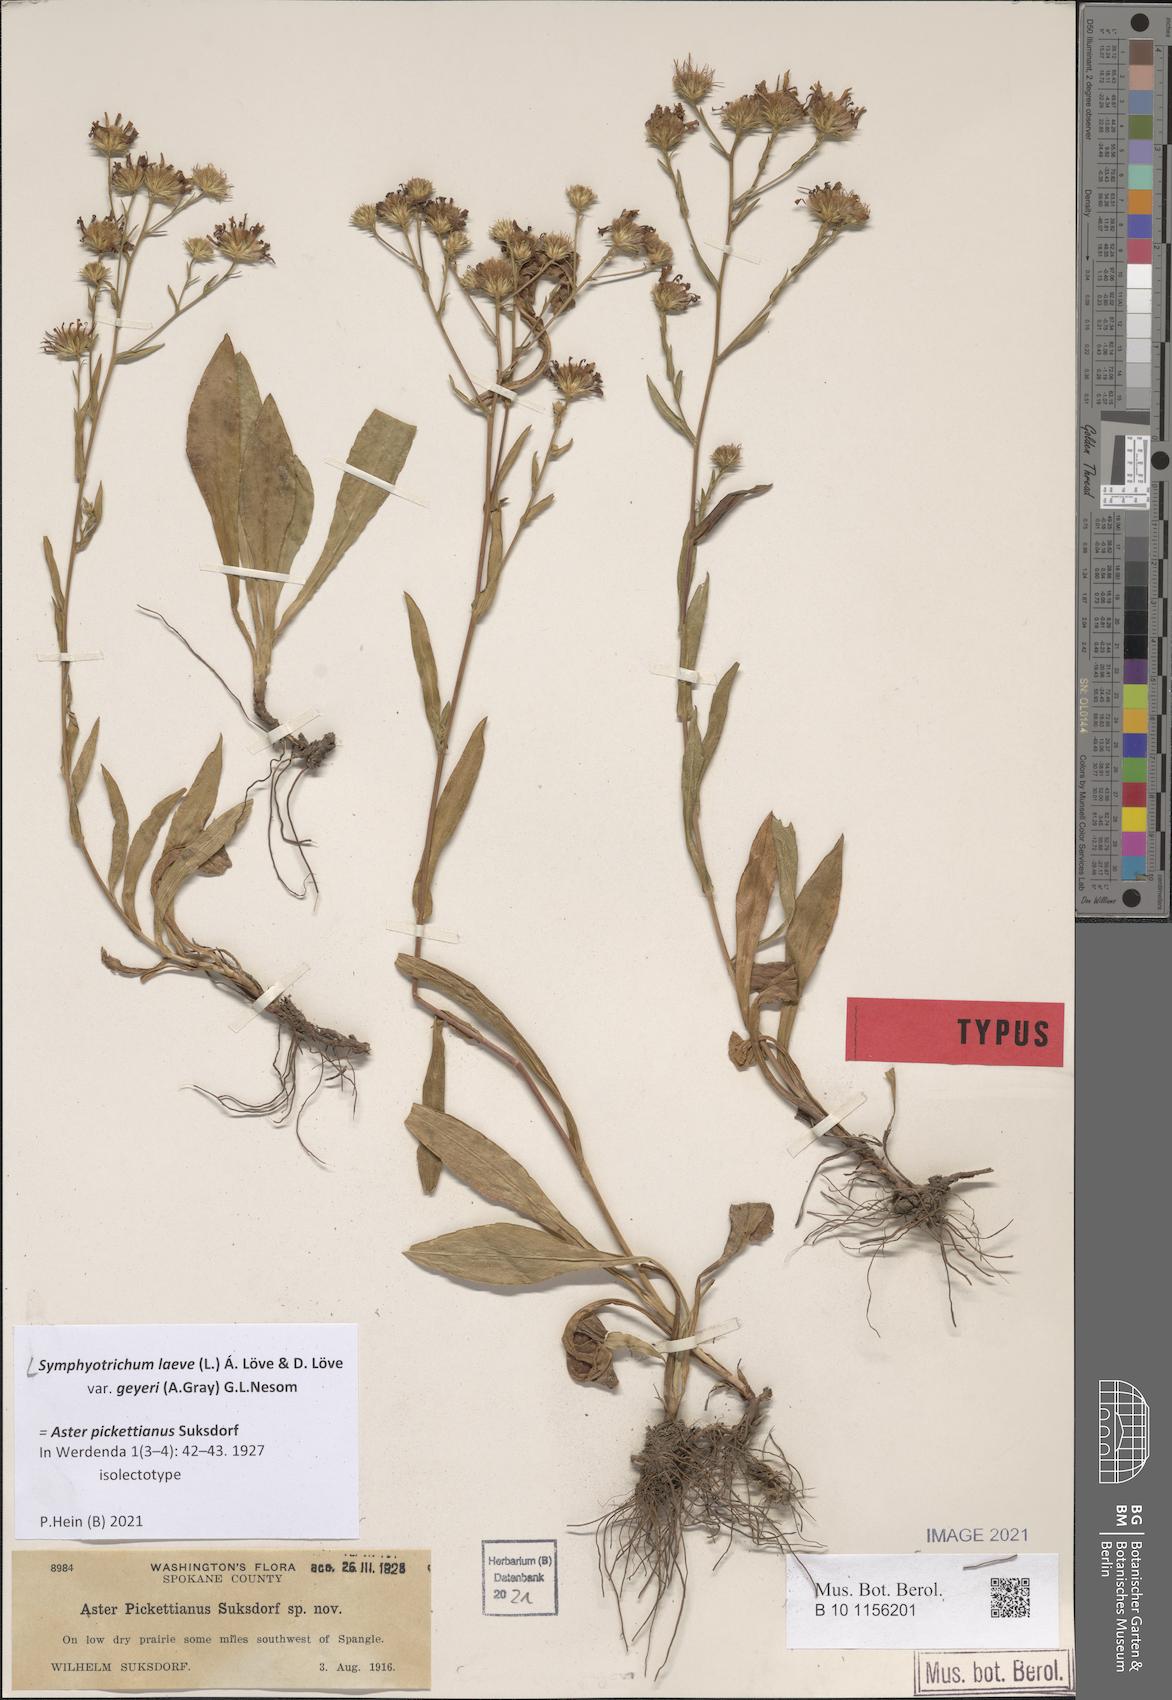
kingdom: Plantae
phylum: Tracheophyta
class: Magnoliopsida
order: Asterales
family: Asteraceae
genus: Symphyotrichum
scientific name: Symphyotrichum laeve
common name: Glaucous aster
